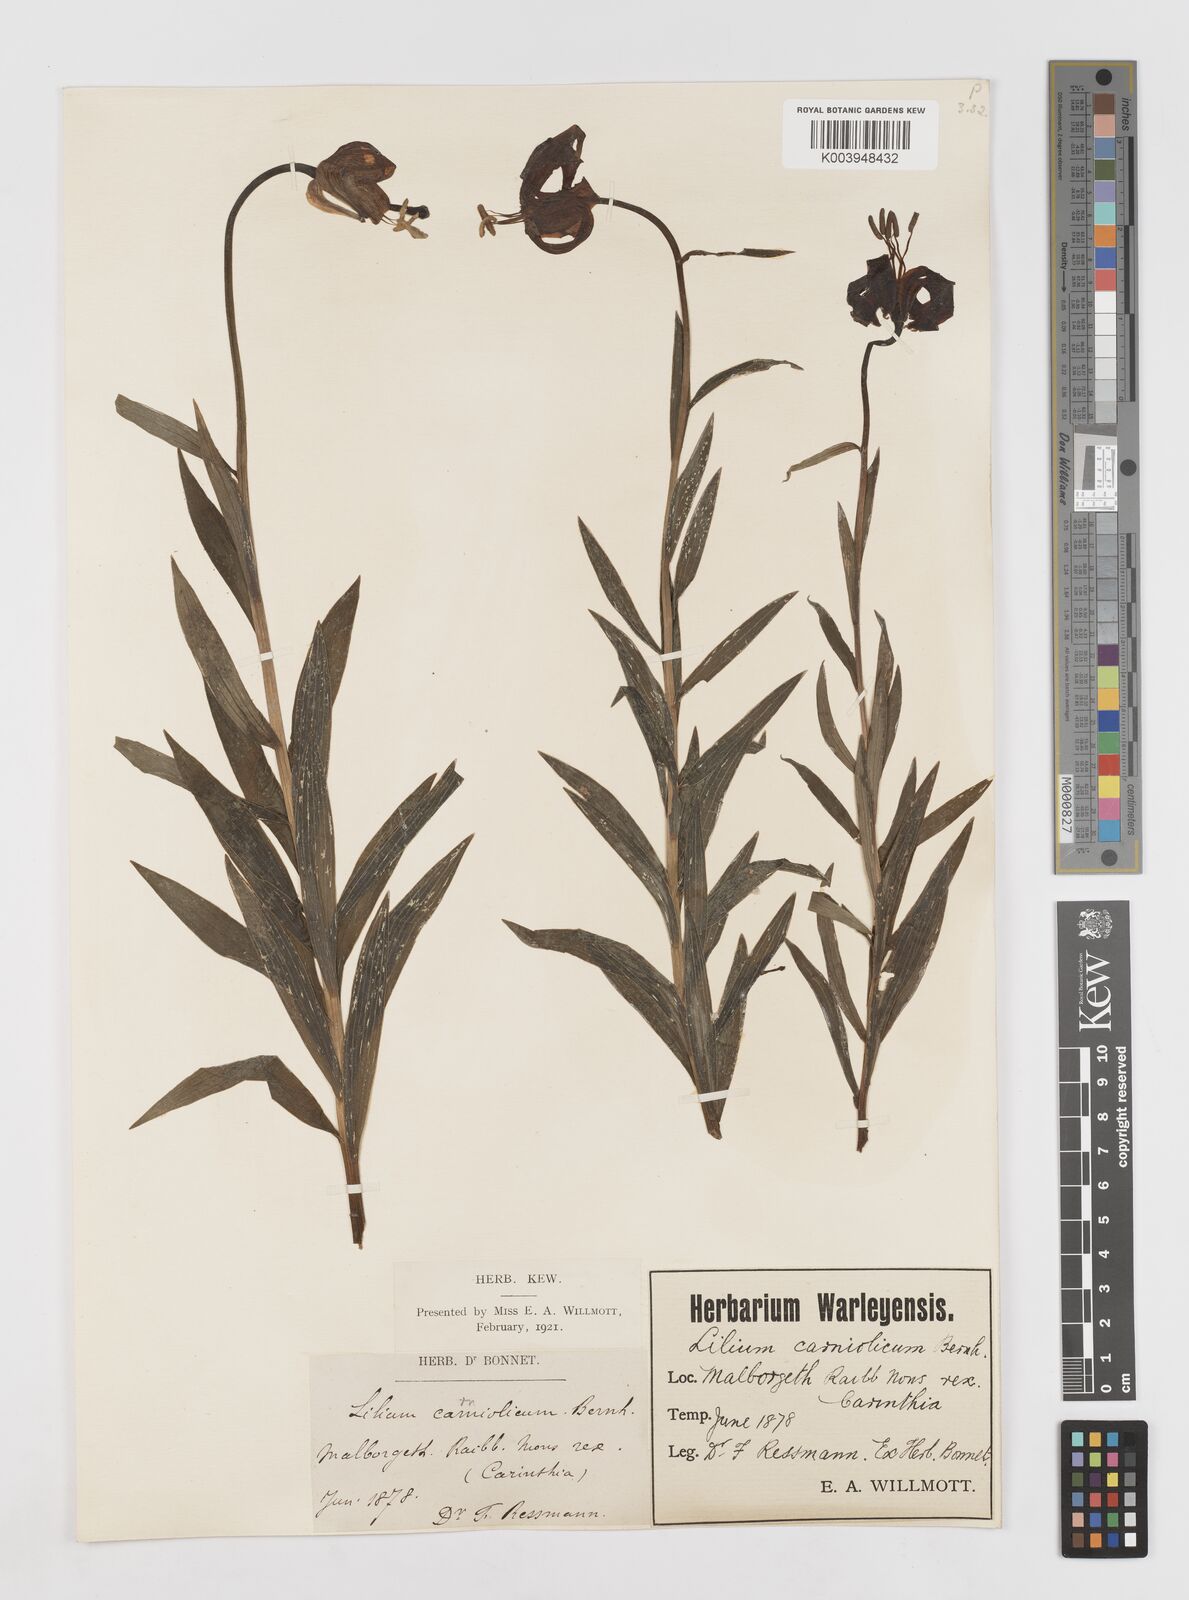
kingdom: Plantae
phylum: Tracheophyta
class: Liliopsida
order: Liliales
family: Liliaceae
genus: Lilium
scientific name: Lilium carniolicum
